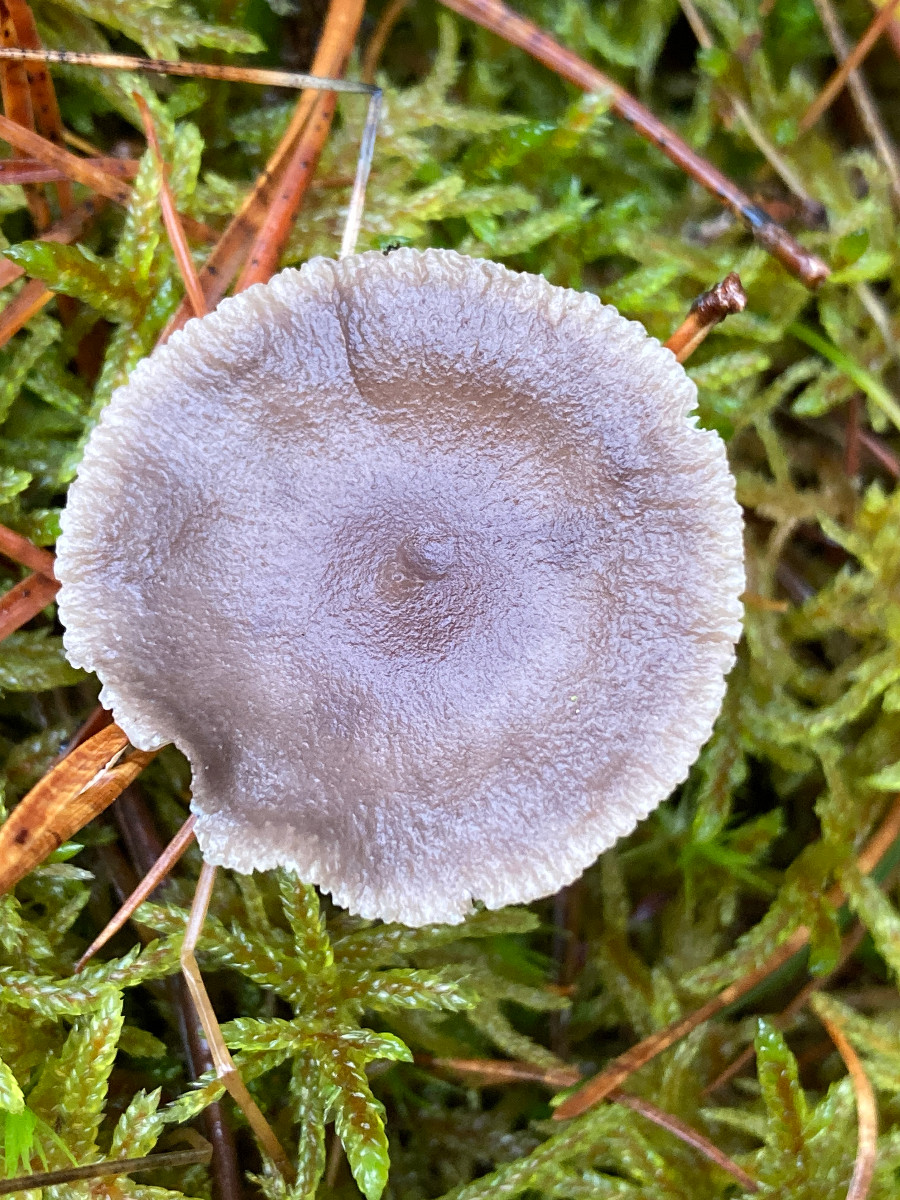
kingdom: Fungi
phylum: Basidiomycota
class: Agaricomycetes
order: Agaricales
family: Hygrophoraceae
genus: Cantharellula
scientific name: Cantharellula umbonata
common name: rødmende gaffelblad
